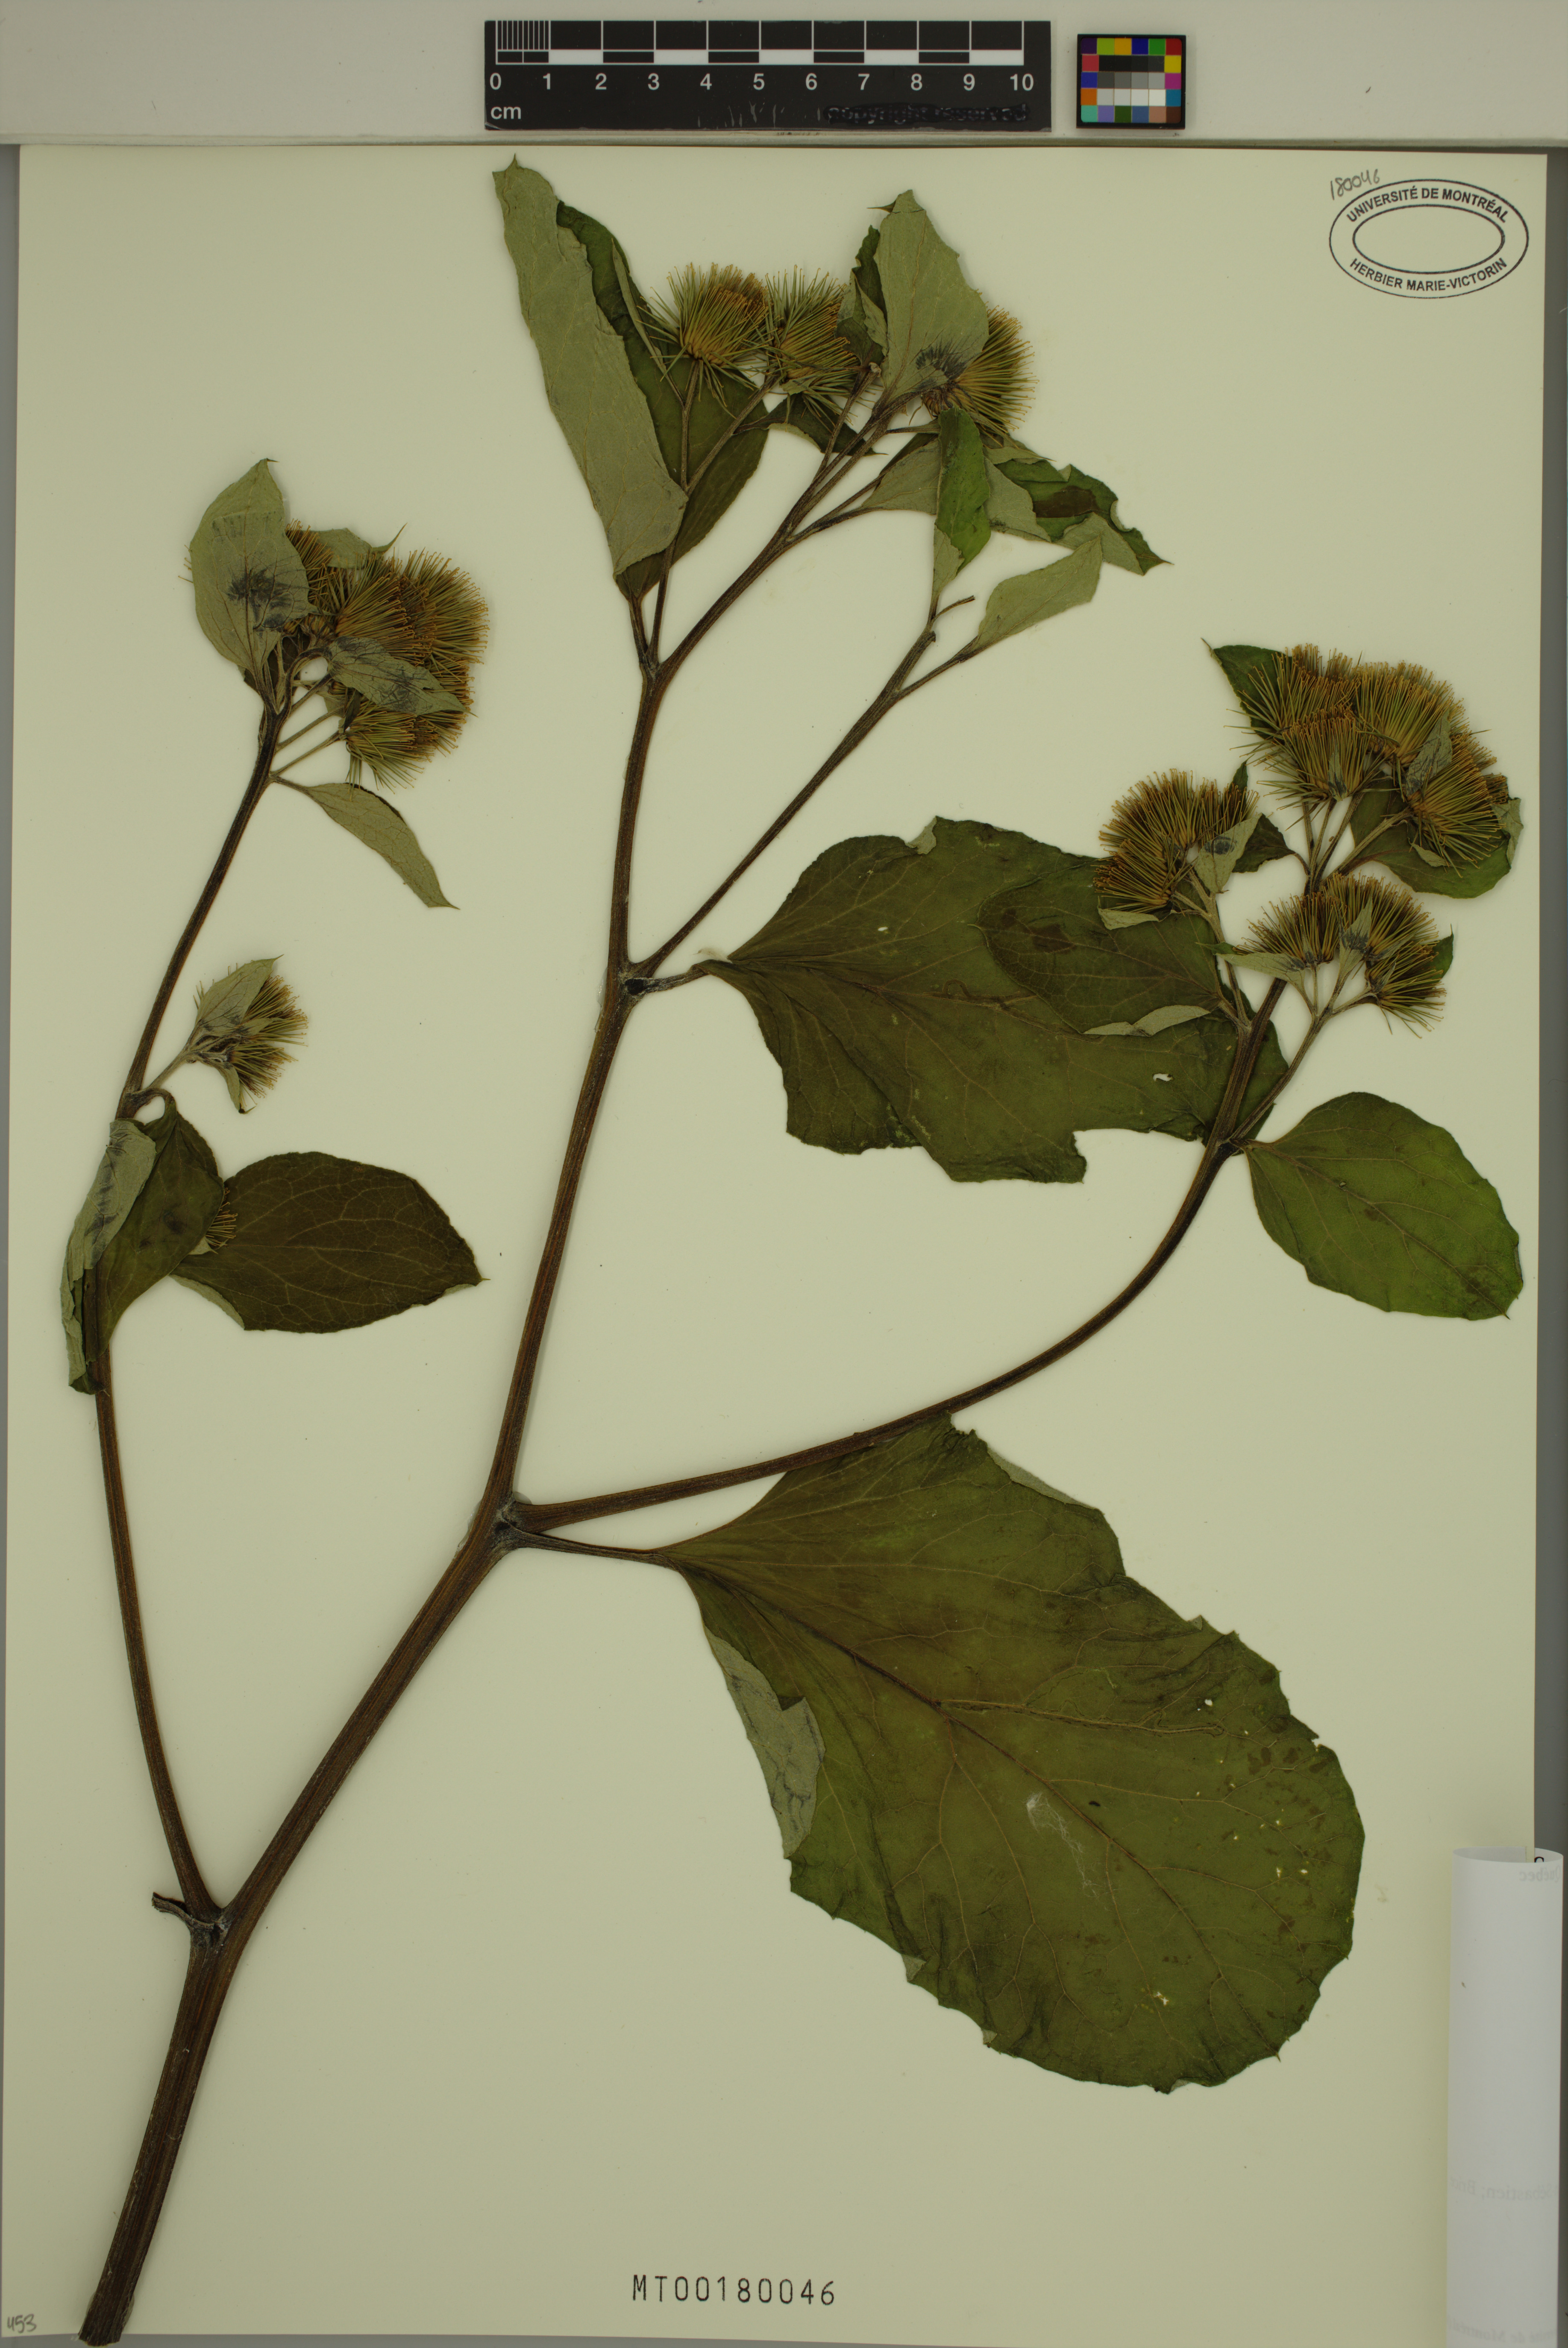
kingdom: Plantae
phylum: Tracheophyta
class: Magnoliopsida
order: Asterales
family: Asteraceae
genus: Arctium
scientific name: Arctium lappa
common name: Greater burdock
